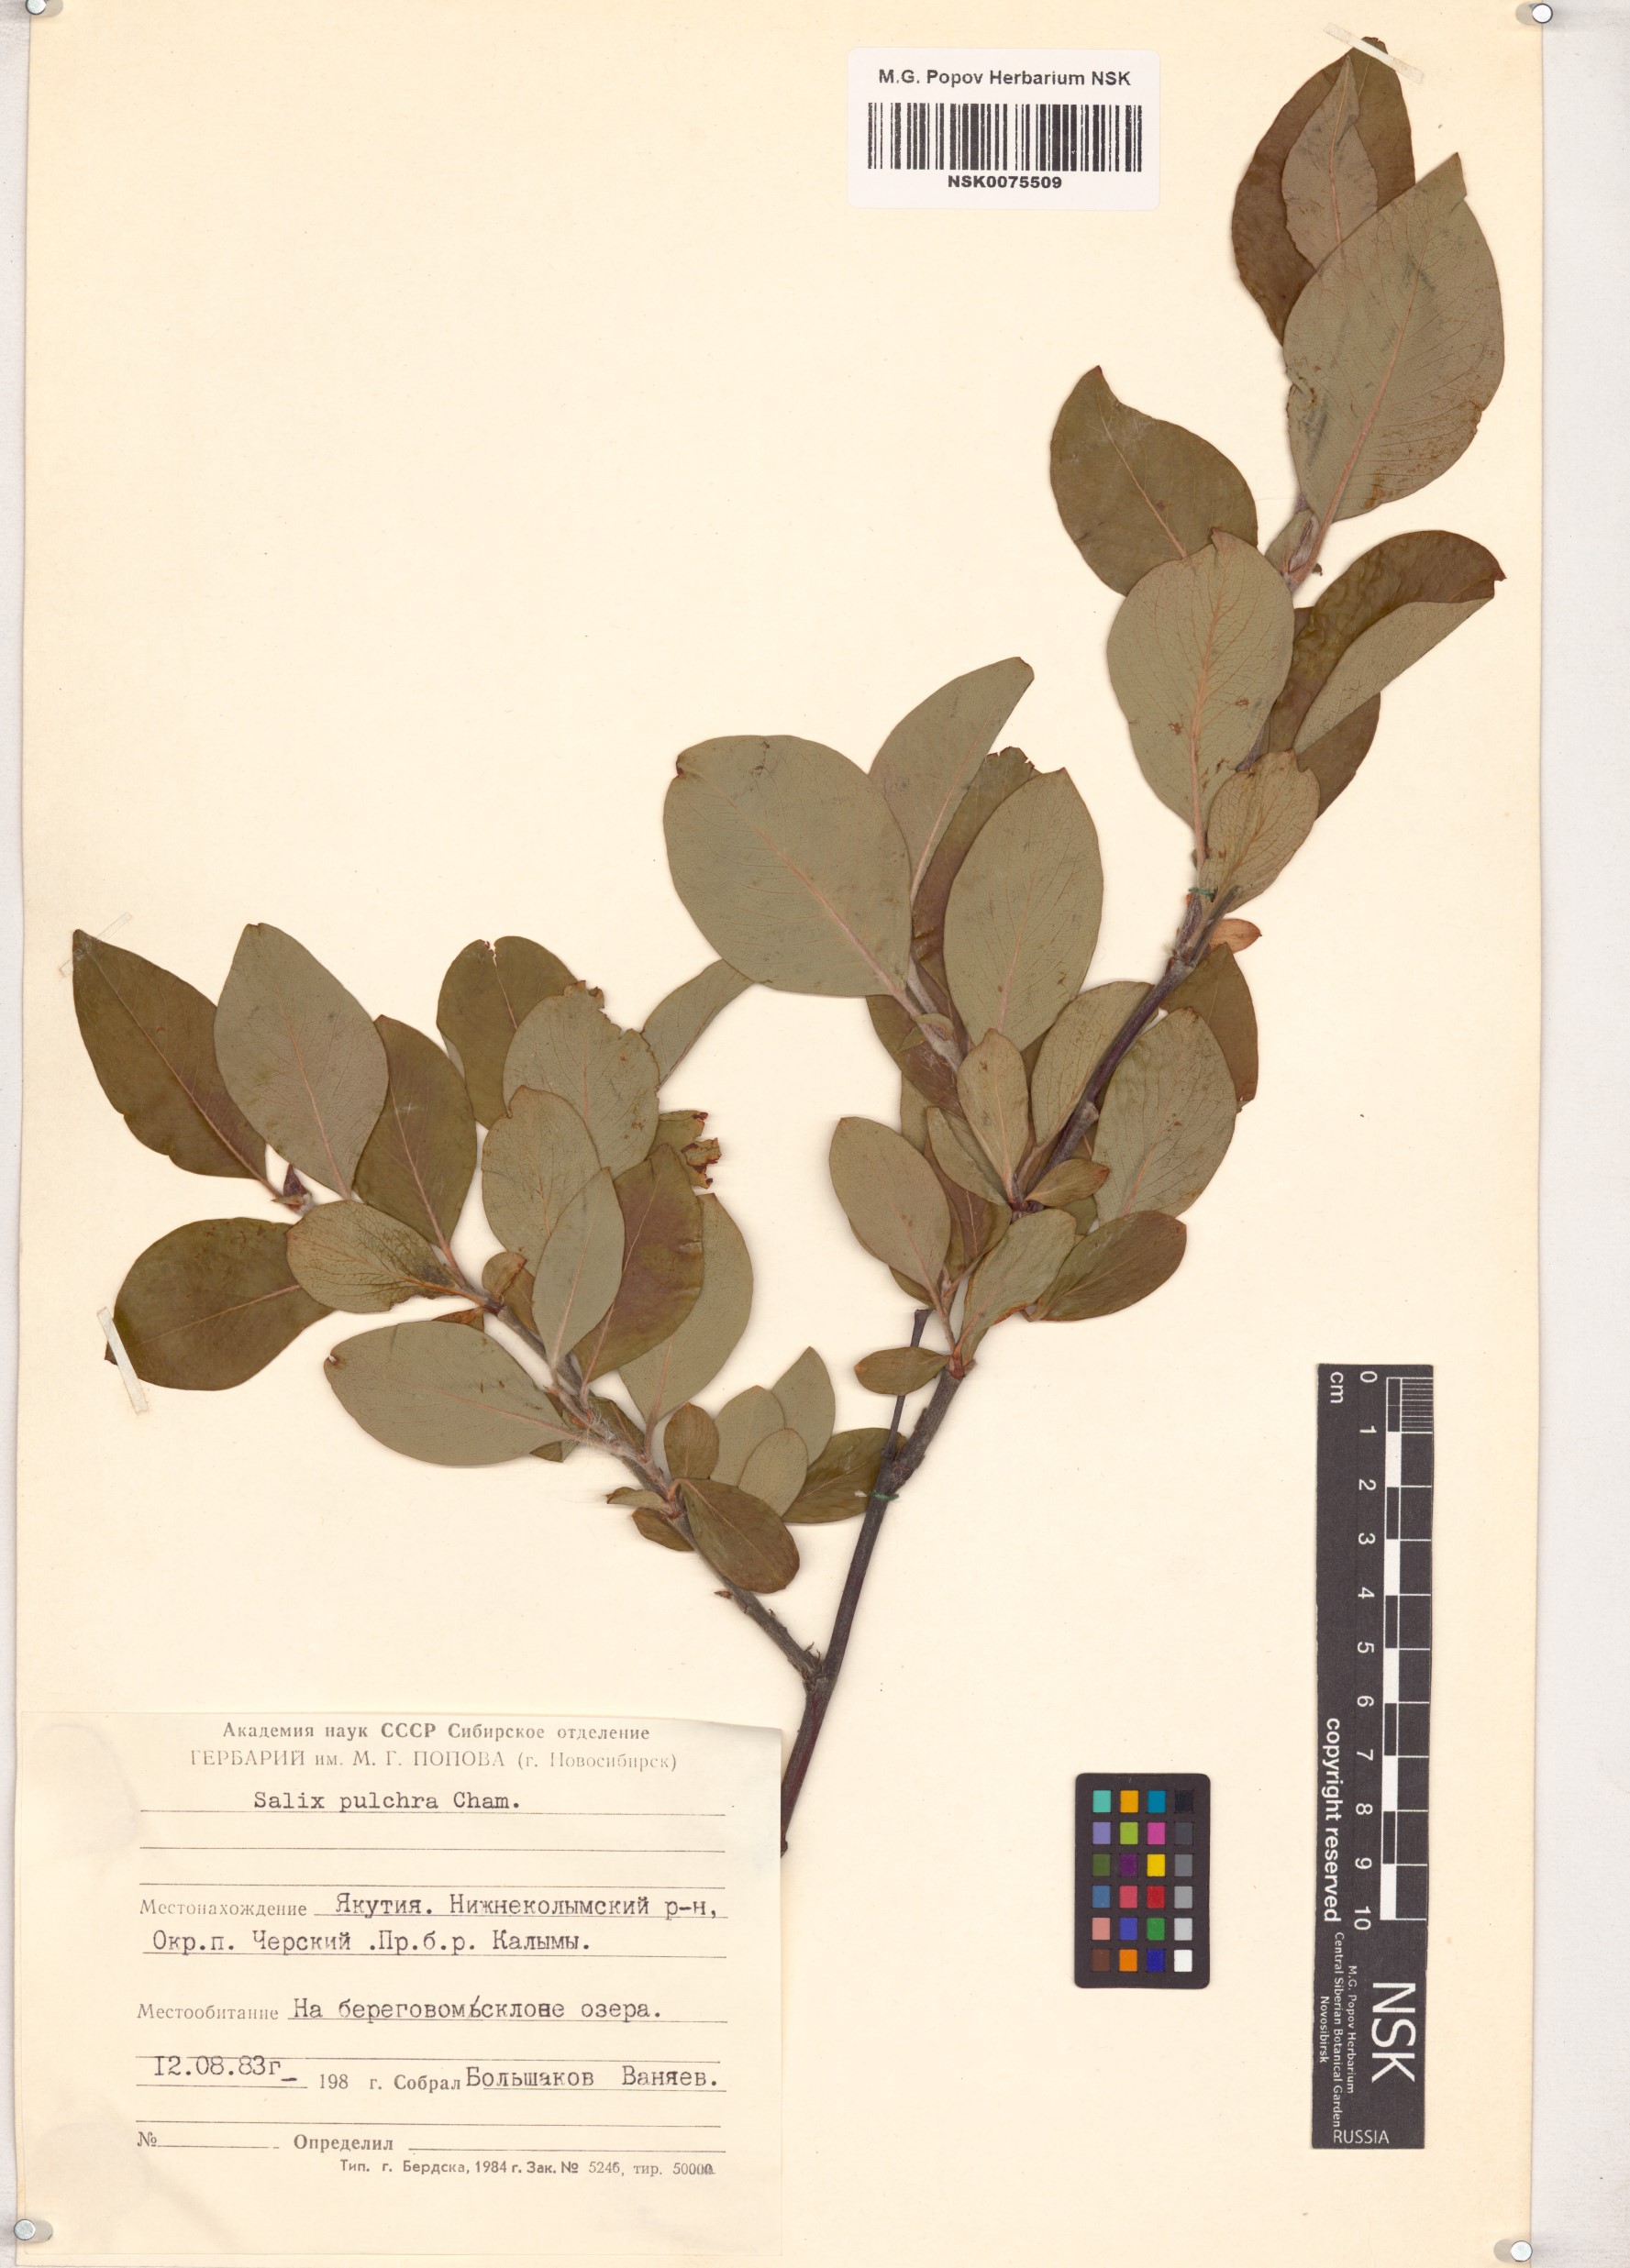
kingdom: Plantae
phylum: Tracheophyta
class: Magnoliopsida
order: Malpighiales
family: Salicaceae
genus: Salix
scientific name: Salix pulchra
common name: Diamond-leaved willow
